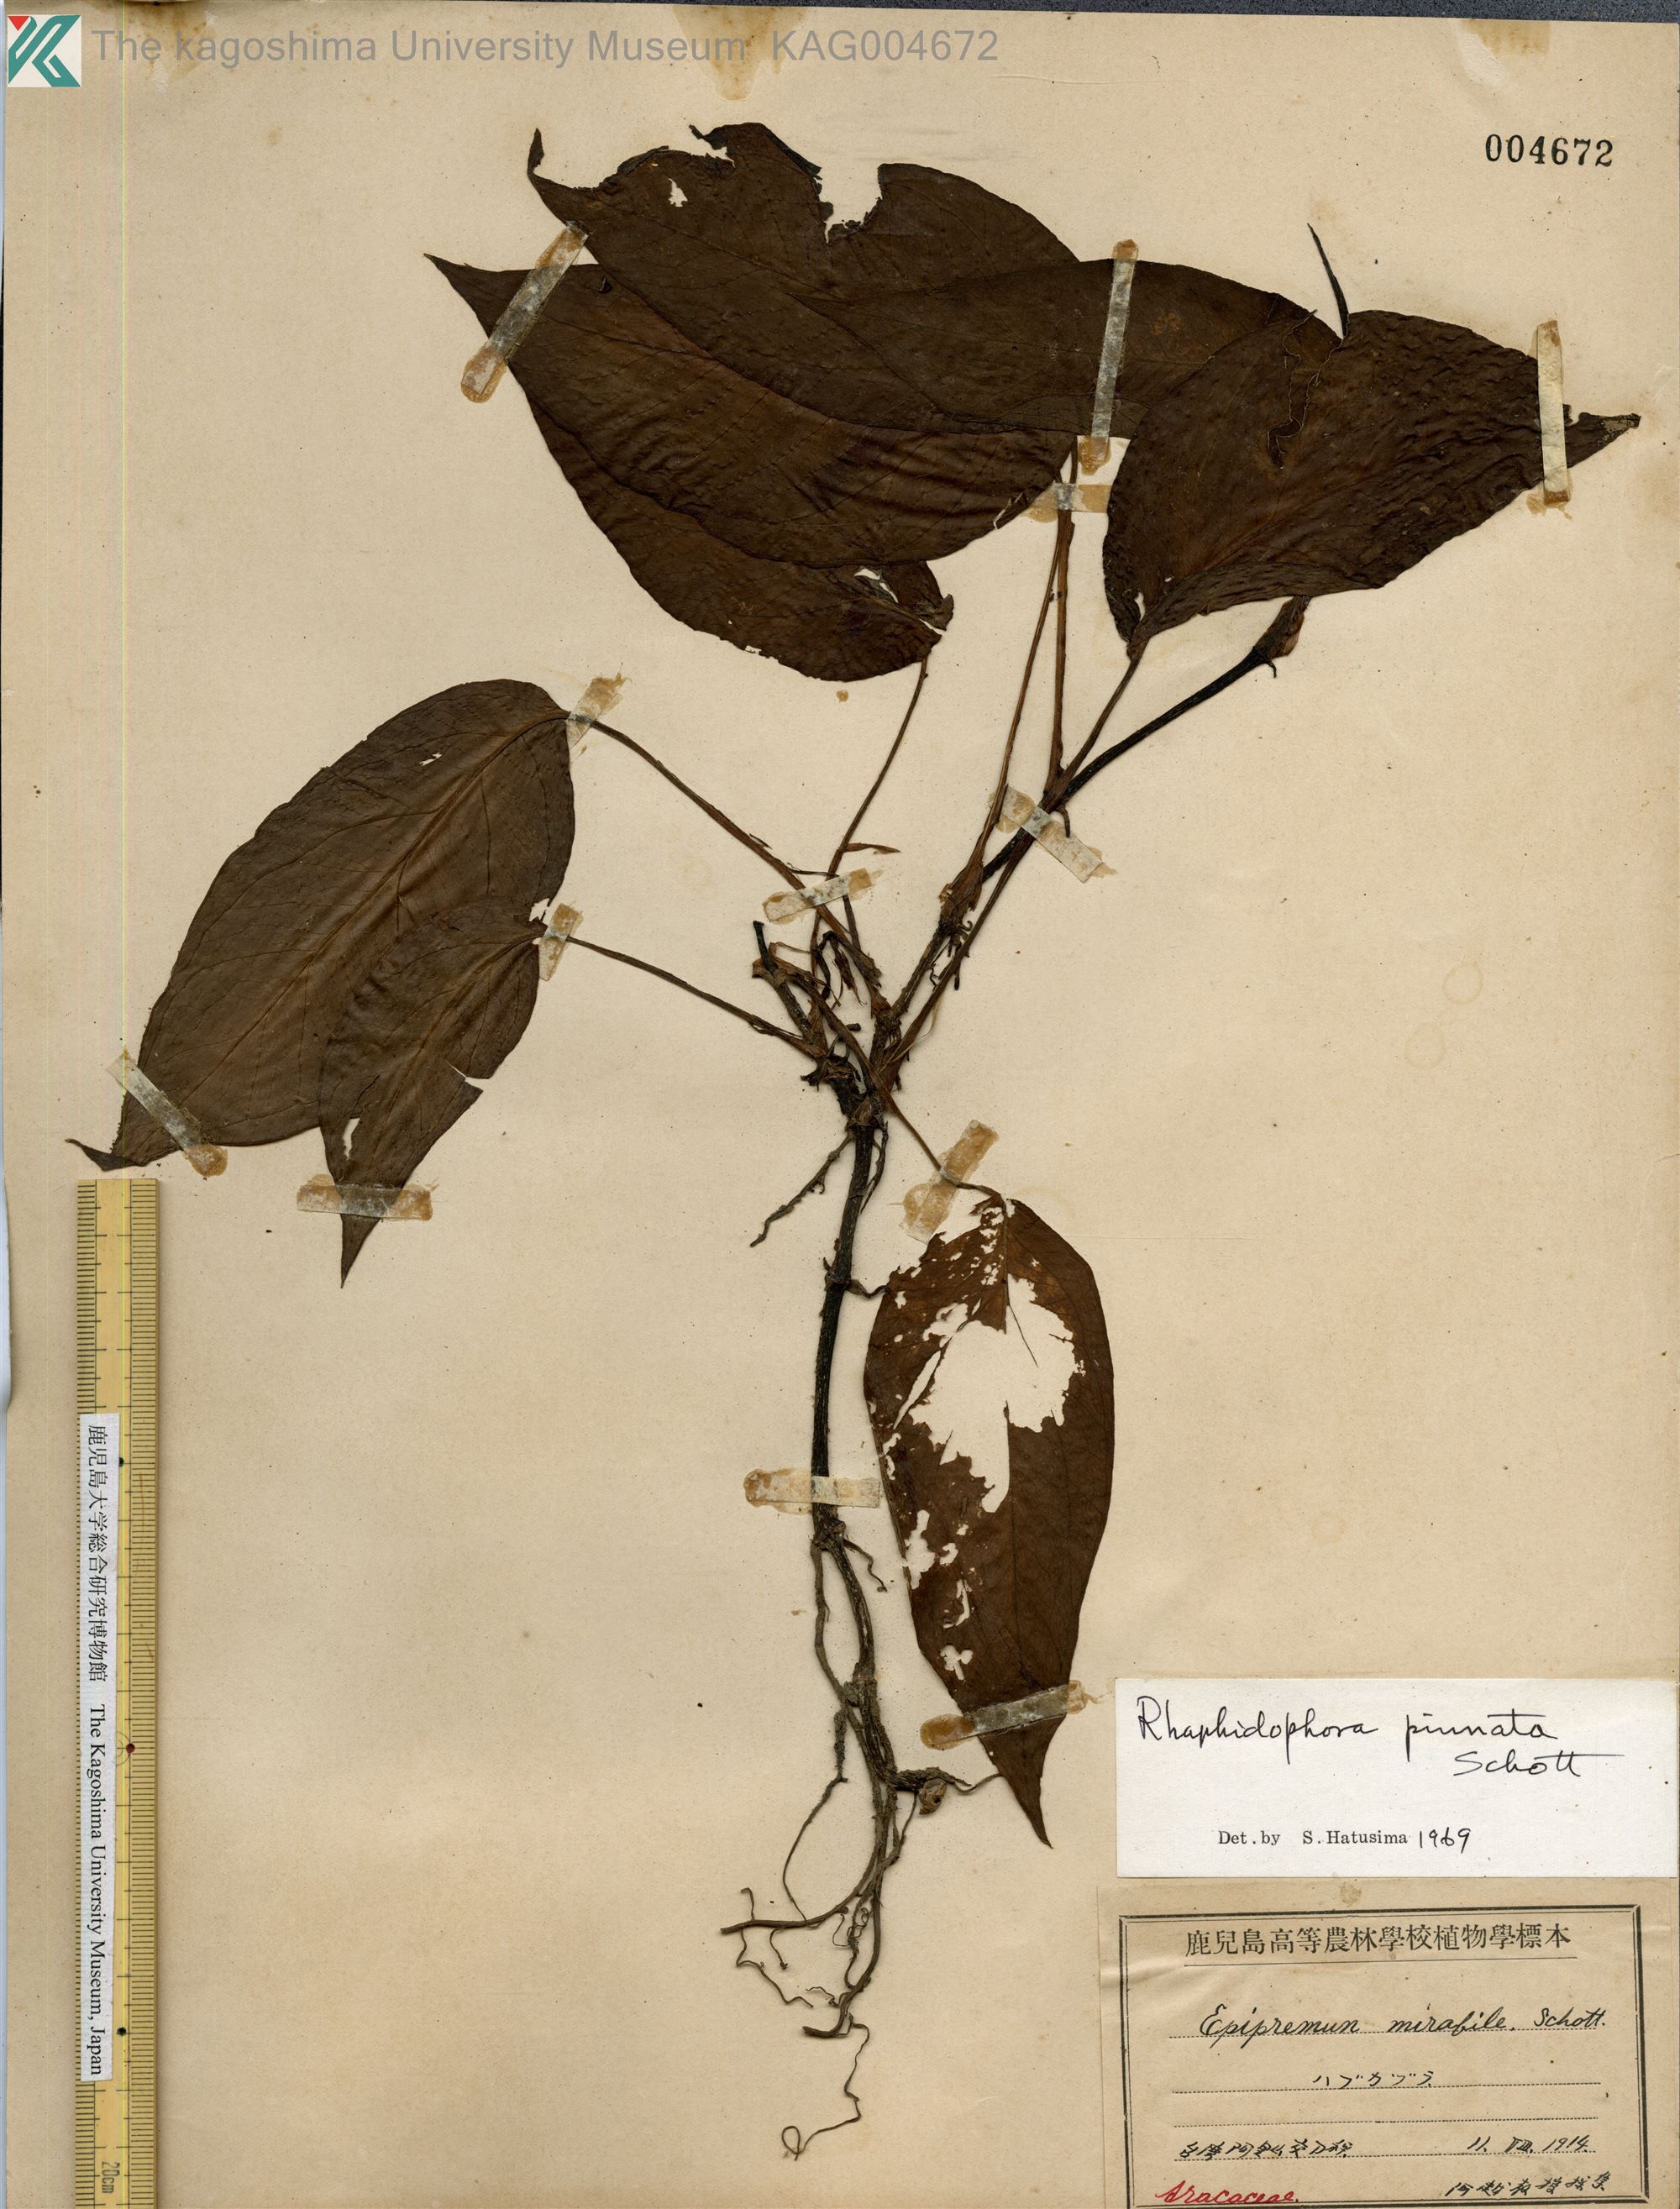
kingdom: Plantae
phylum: Tracheophyta
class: Liliopsida
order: Alismatales
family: Araceae
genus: Epipremnum
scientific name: Epipremnum pinnatum
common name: Centipede tongavine
